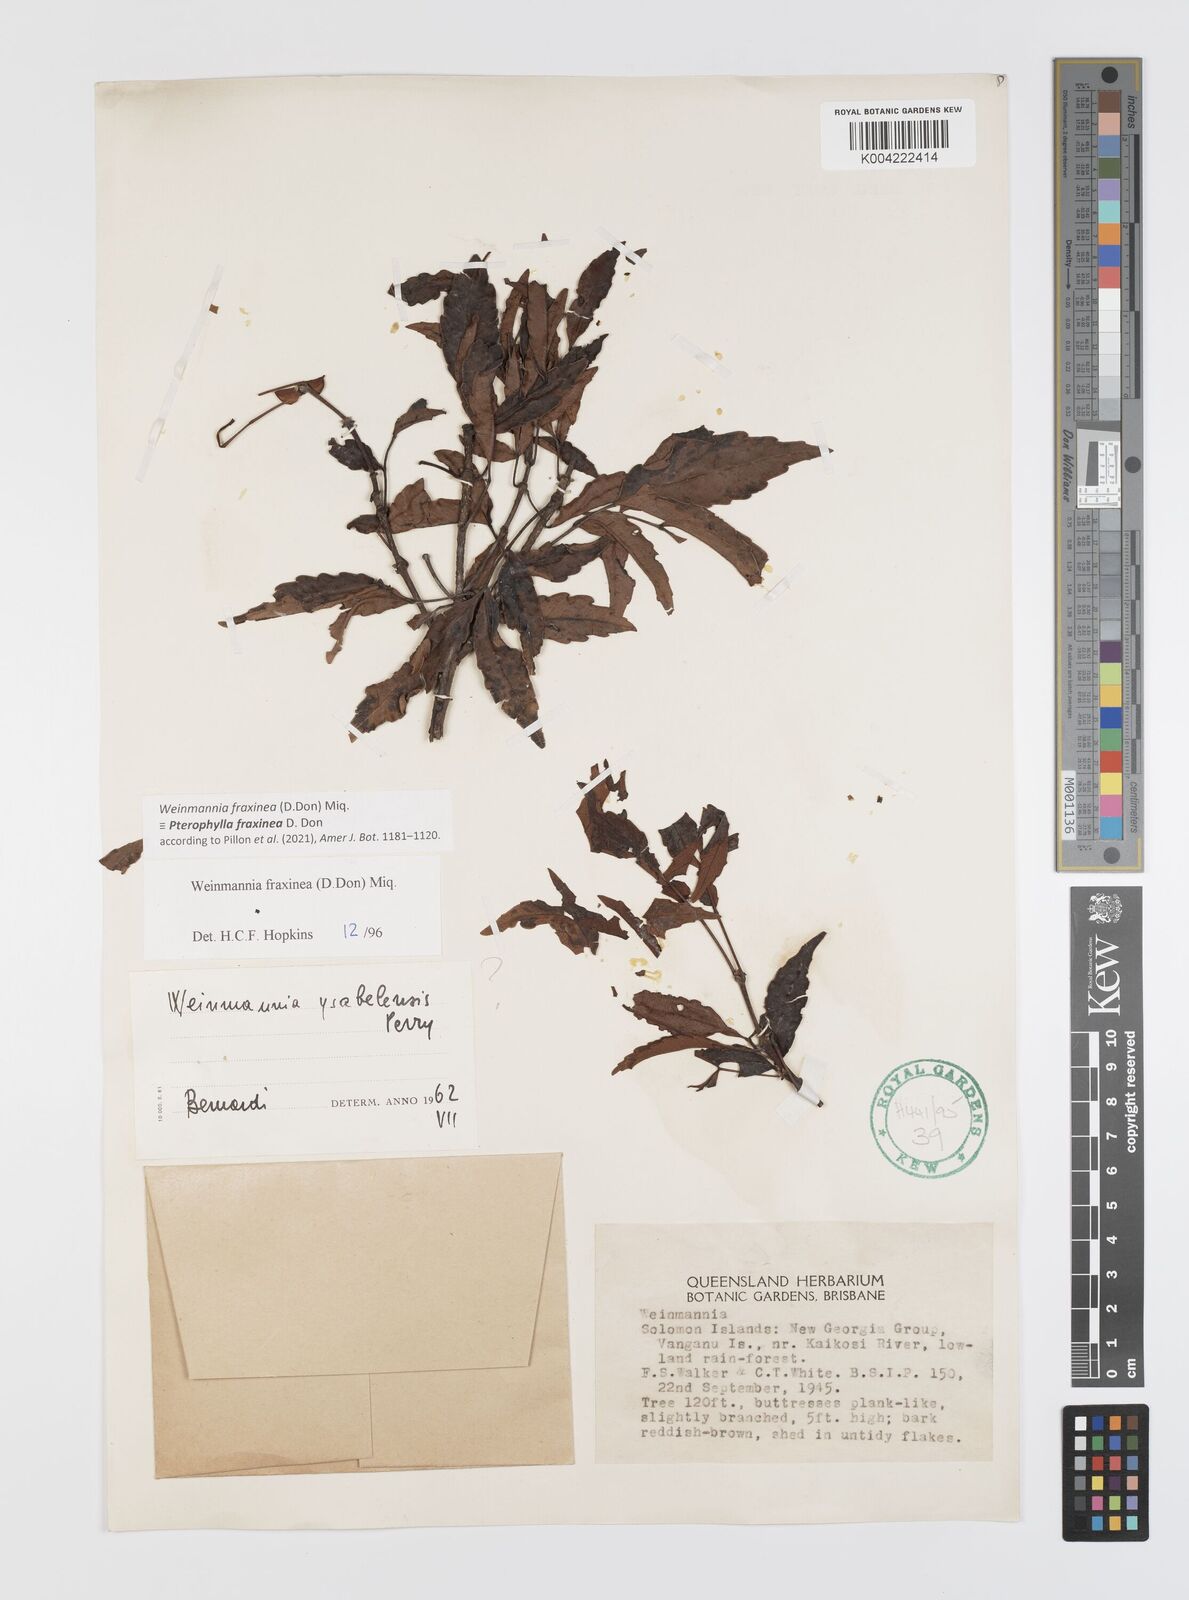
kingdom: Plantae
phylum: Tracheophyta
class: Magnoliopsida
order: Oxalidales
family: Cunoniaceae
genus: Pterophylla
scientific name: Pterophylla fraxinea
